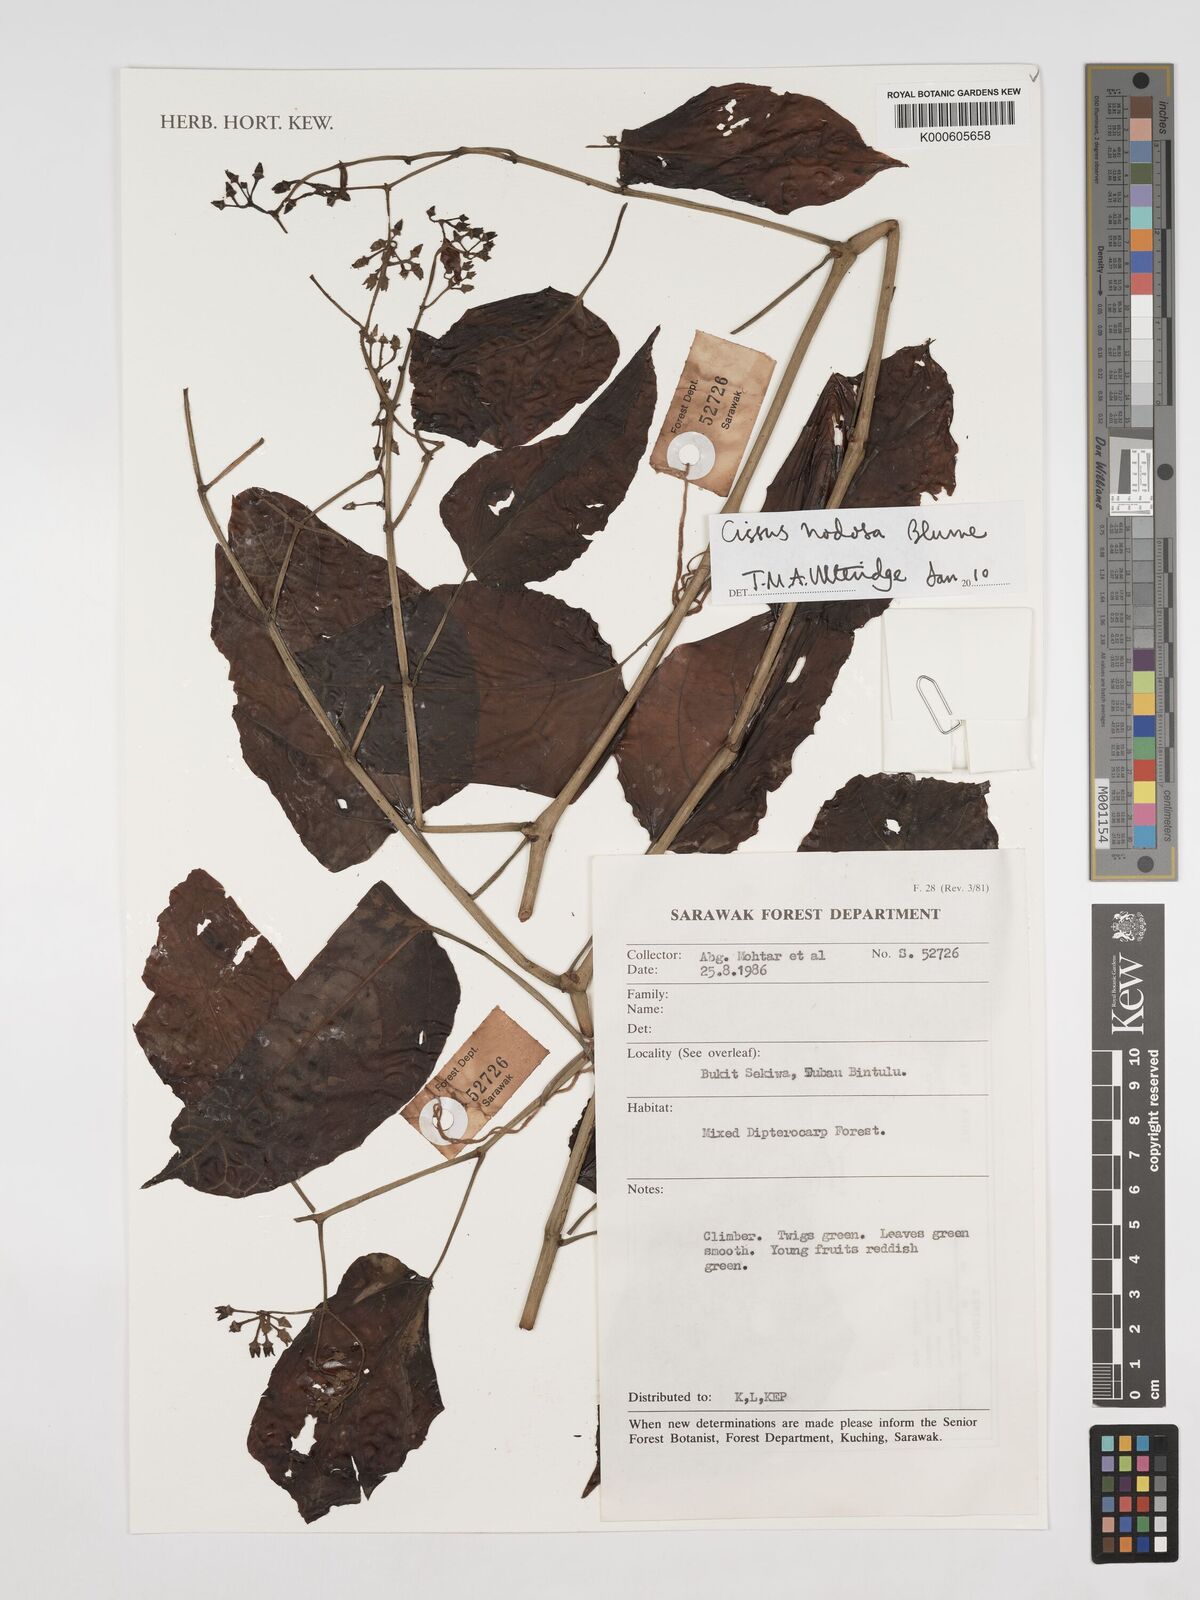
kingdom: Plantae
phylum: Tracheophyta
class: Magnoliopsida
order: Vitales
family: Vitaceae
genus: Cissus
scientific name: Cissus nodosa
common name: Grape ivy
